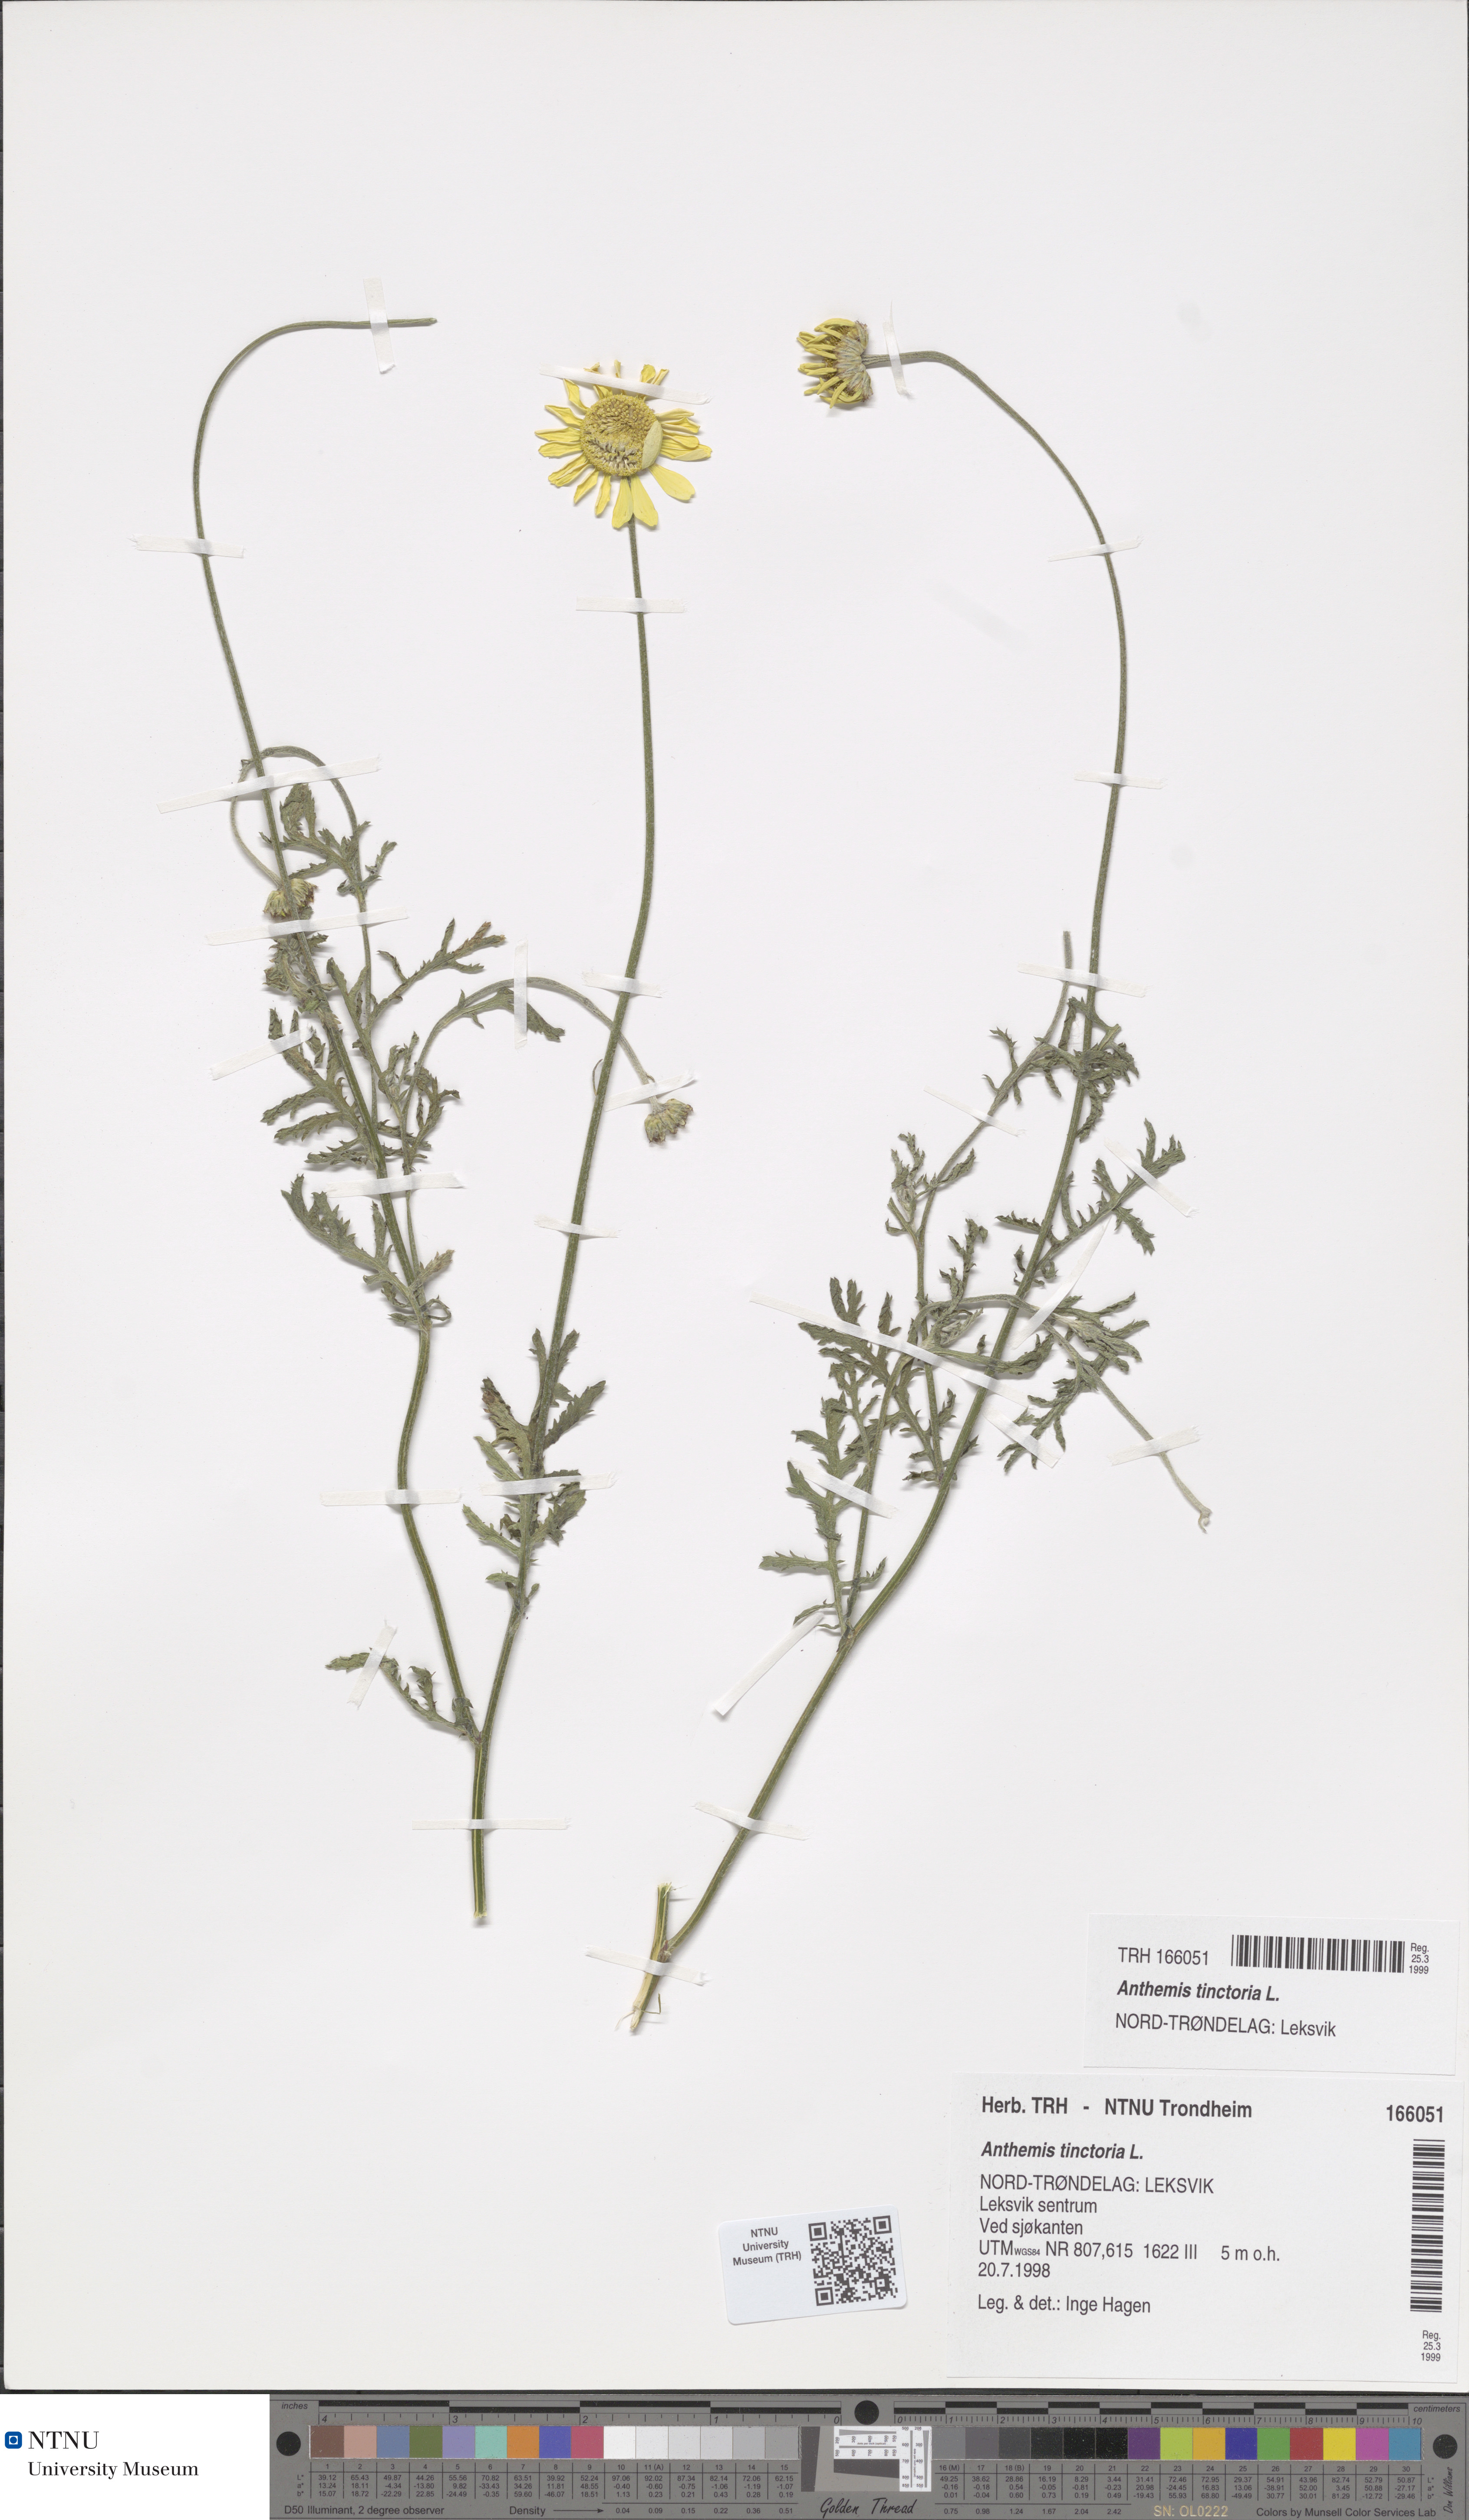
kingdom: Plantae
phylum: Tracheophyta
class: Magnoliopsida
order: Asterales
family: Asteraceae
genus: Cota
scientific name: Cota tinctoria
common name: Golden chamomile
